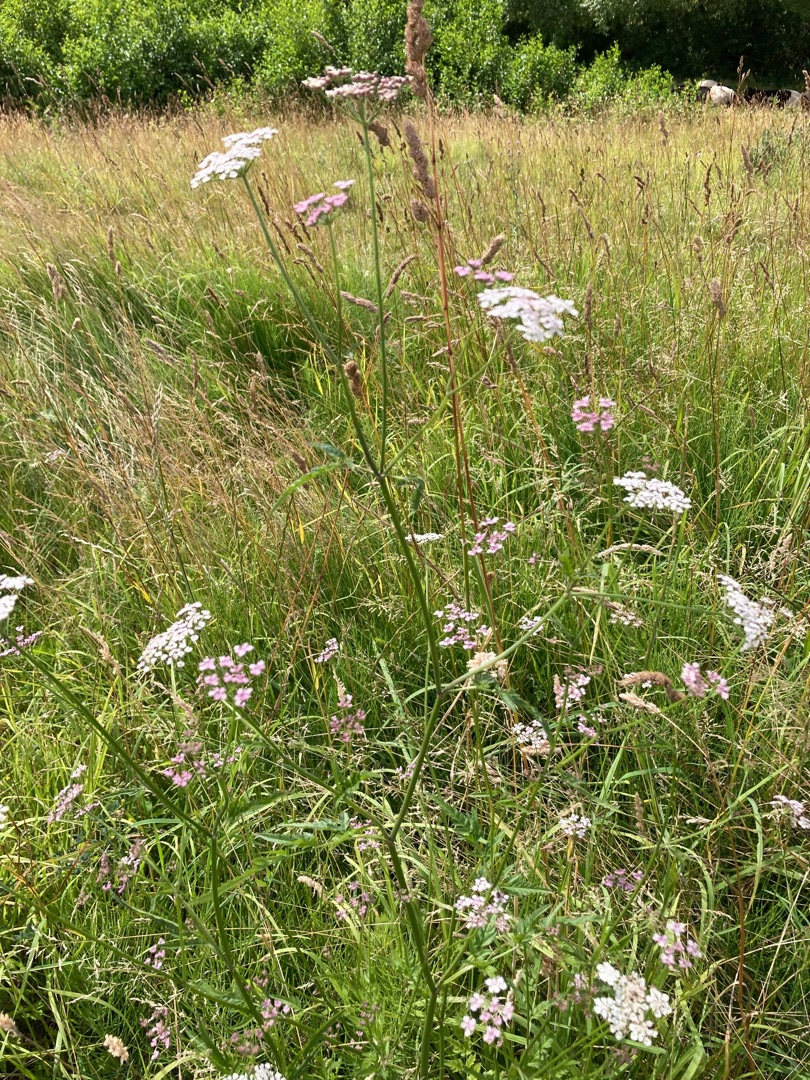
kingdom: Plantae
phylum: Tracheophyta
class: Magnoliopsida
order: Apiales
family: Apiaceae
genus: Torilis
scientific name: Torilis japonica
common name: Hvas randfrø
